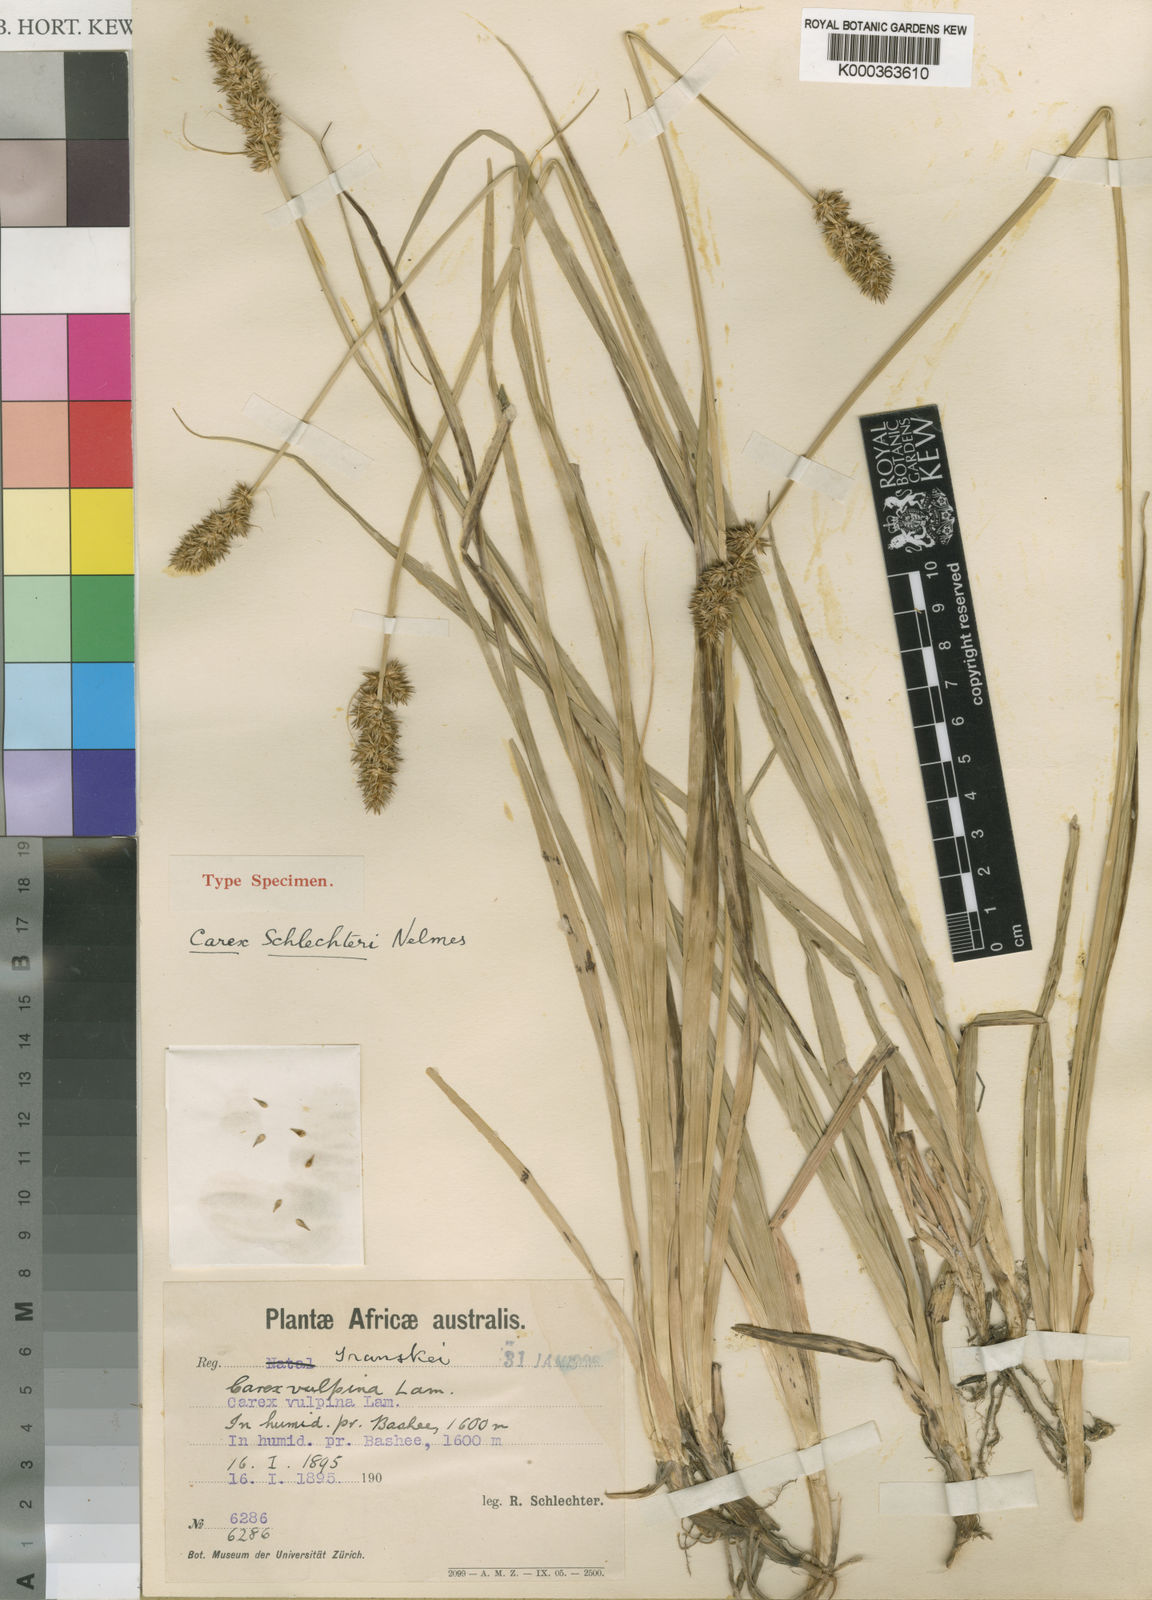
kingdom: Plantae
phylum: Tracheophyta
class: Liliopsida
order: Poales
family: Cyperaceae
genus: Carex
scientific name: Carex vulpina
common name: True fox-sedge
